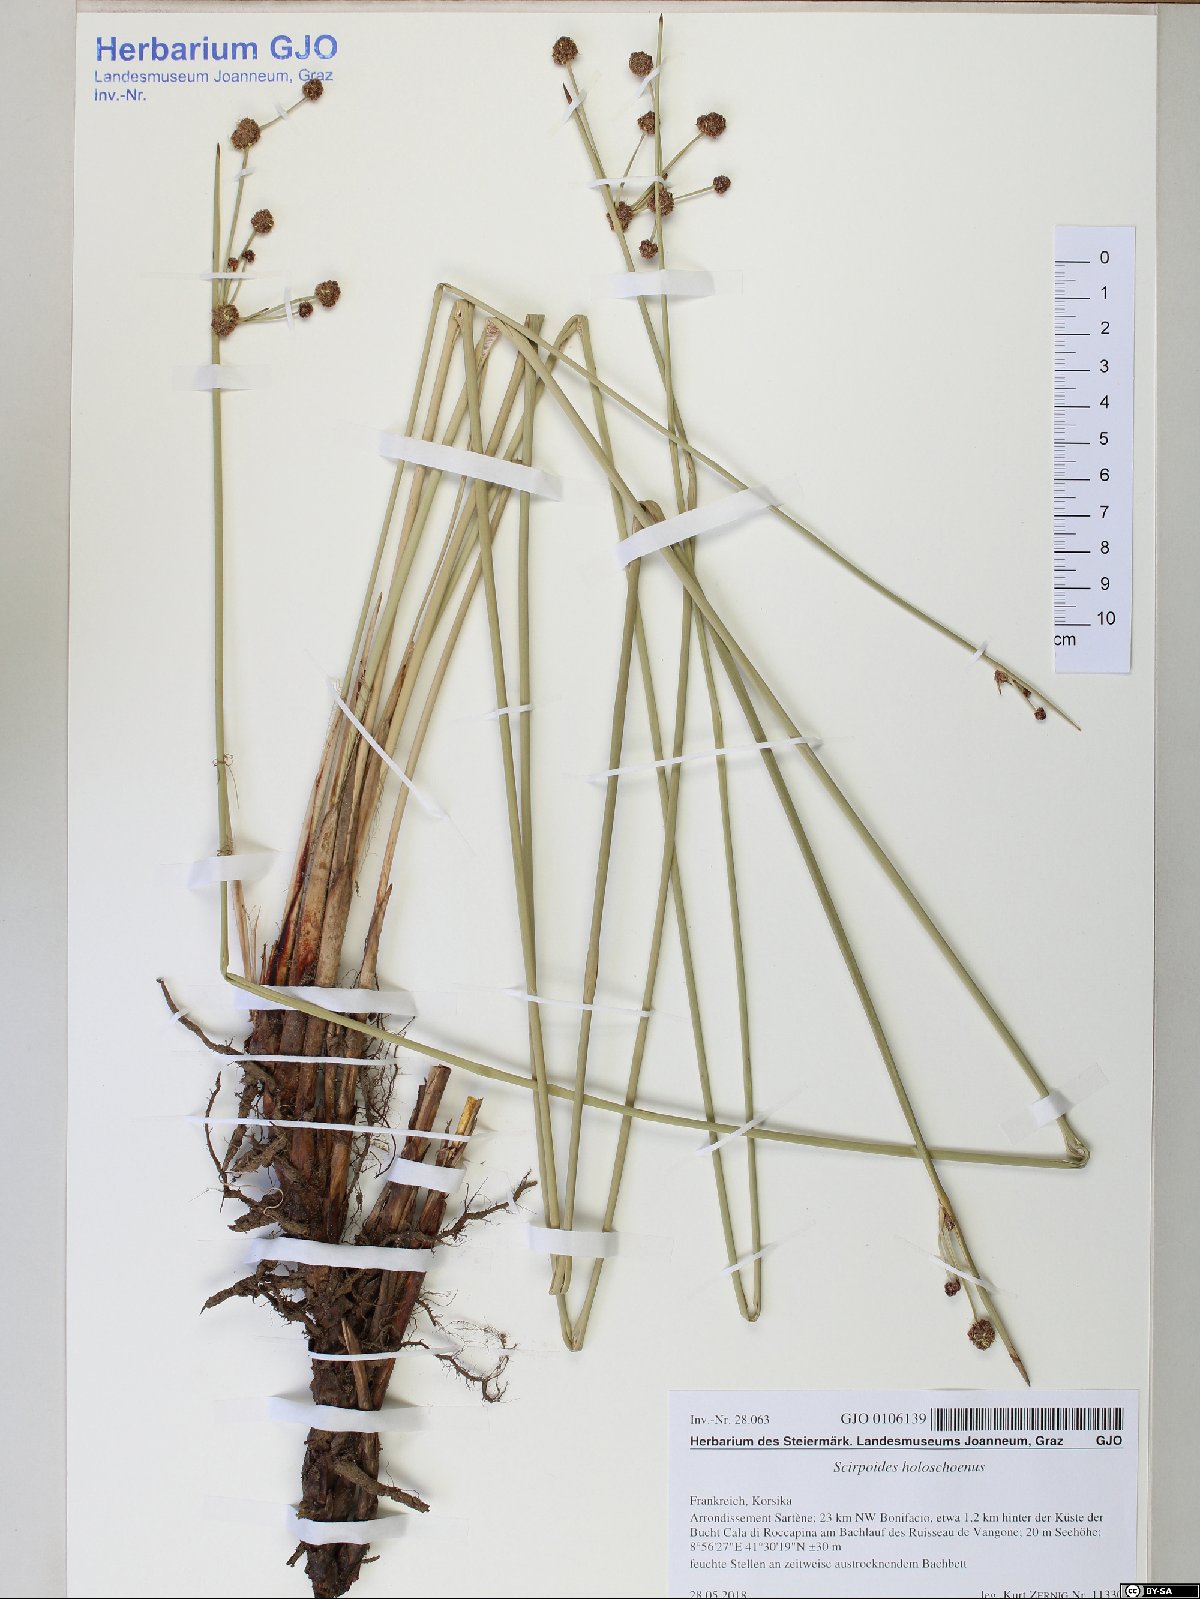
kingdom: Plantae
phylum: Tracheophyta
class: Liliopsida
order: Poales
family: Cyperaceae
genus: Scirpoides
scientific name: Scirpoides holoschoenus
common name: Round-headed club-rush
